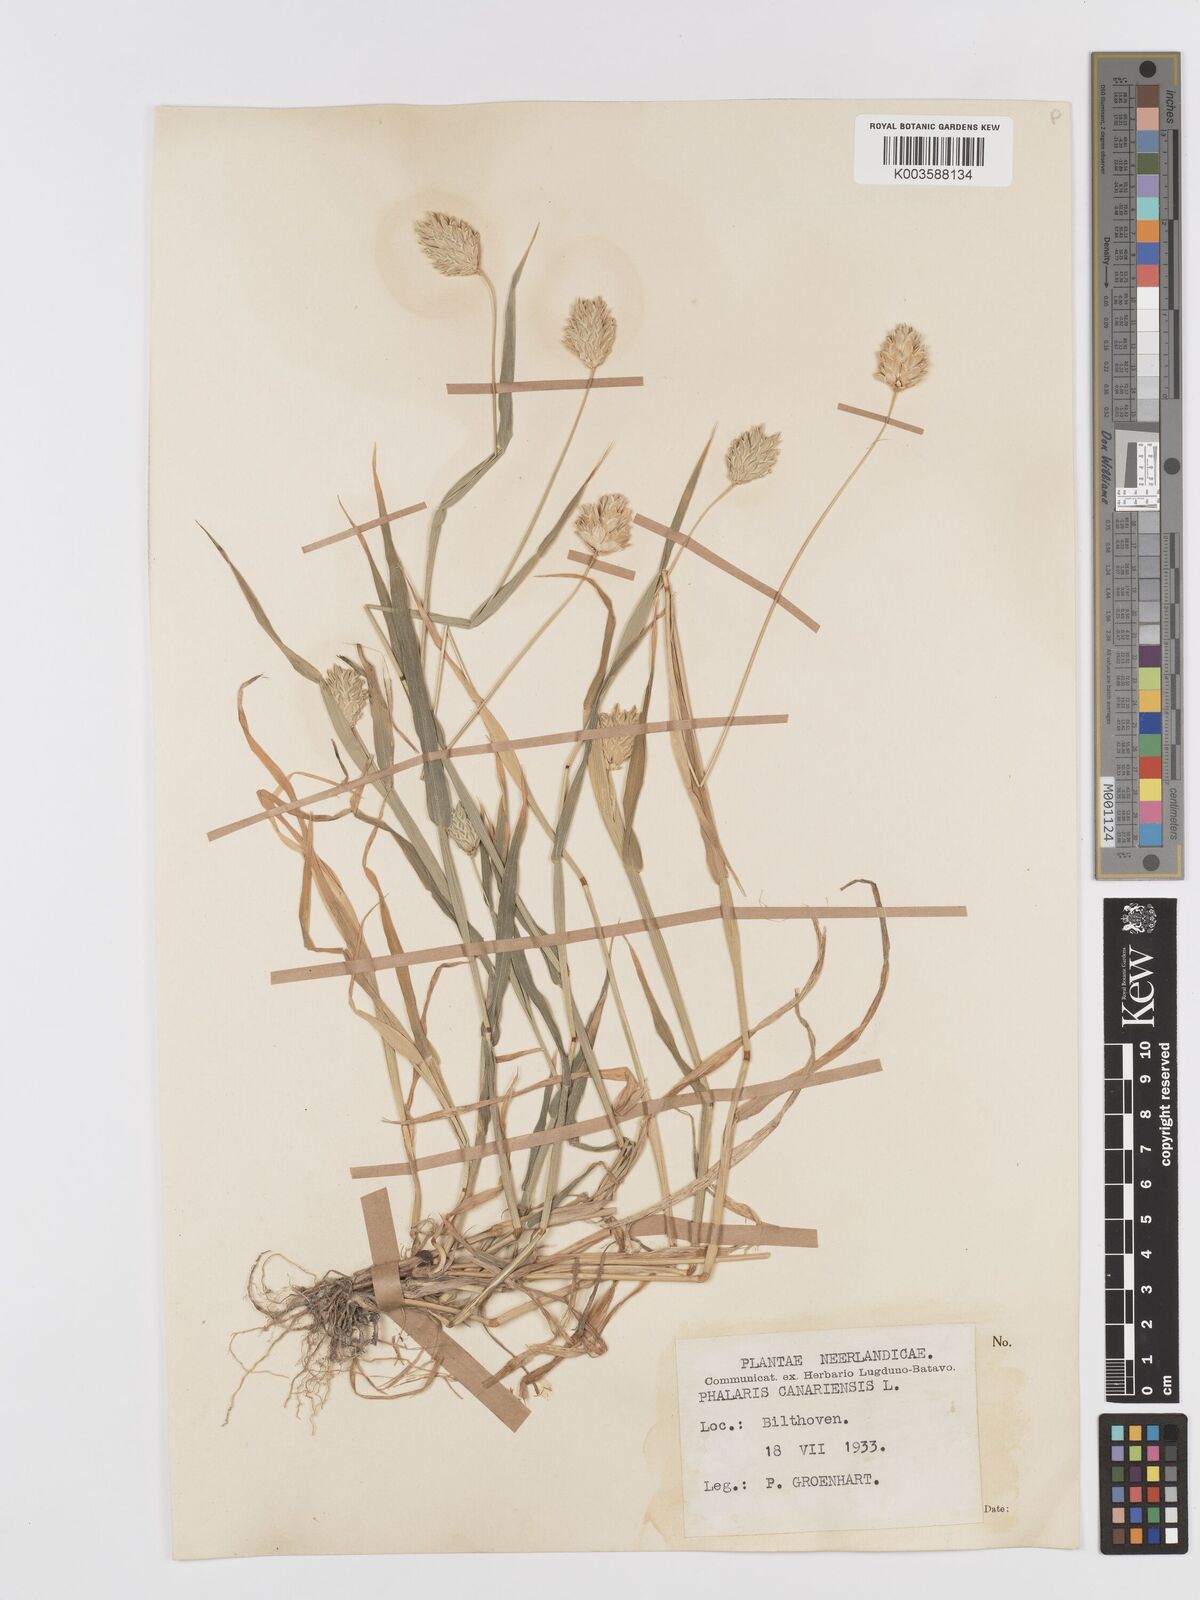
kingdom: Plantae
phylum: Tracheophyta
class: Liliopsida
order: Poales
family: Poaceae
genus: Phalaris
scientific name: Phalaris canariensis
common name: Annual canarygrass
